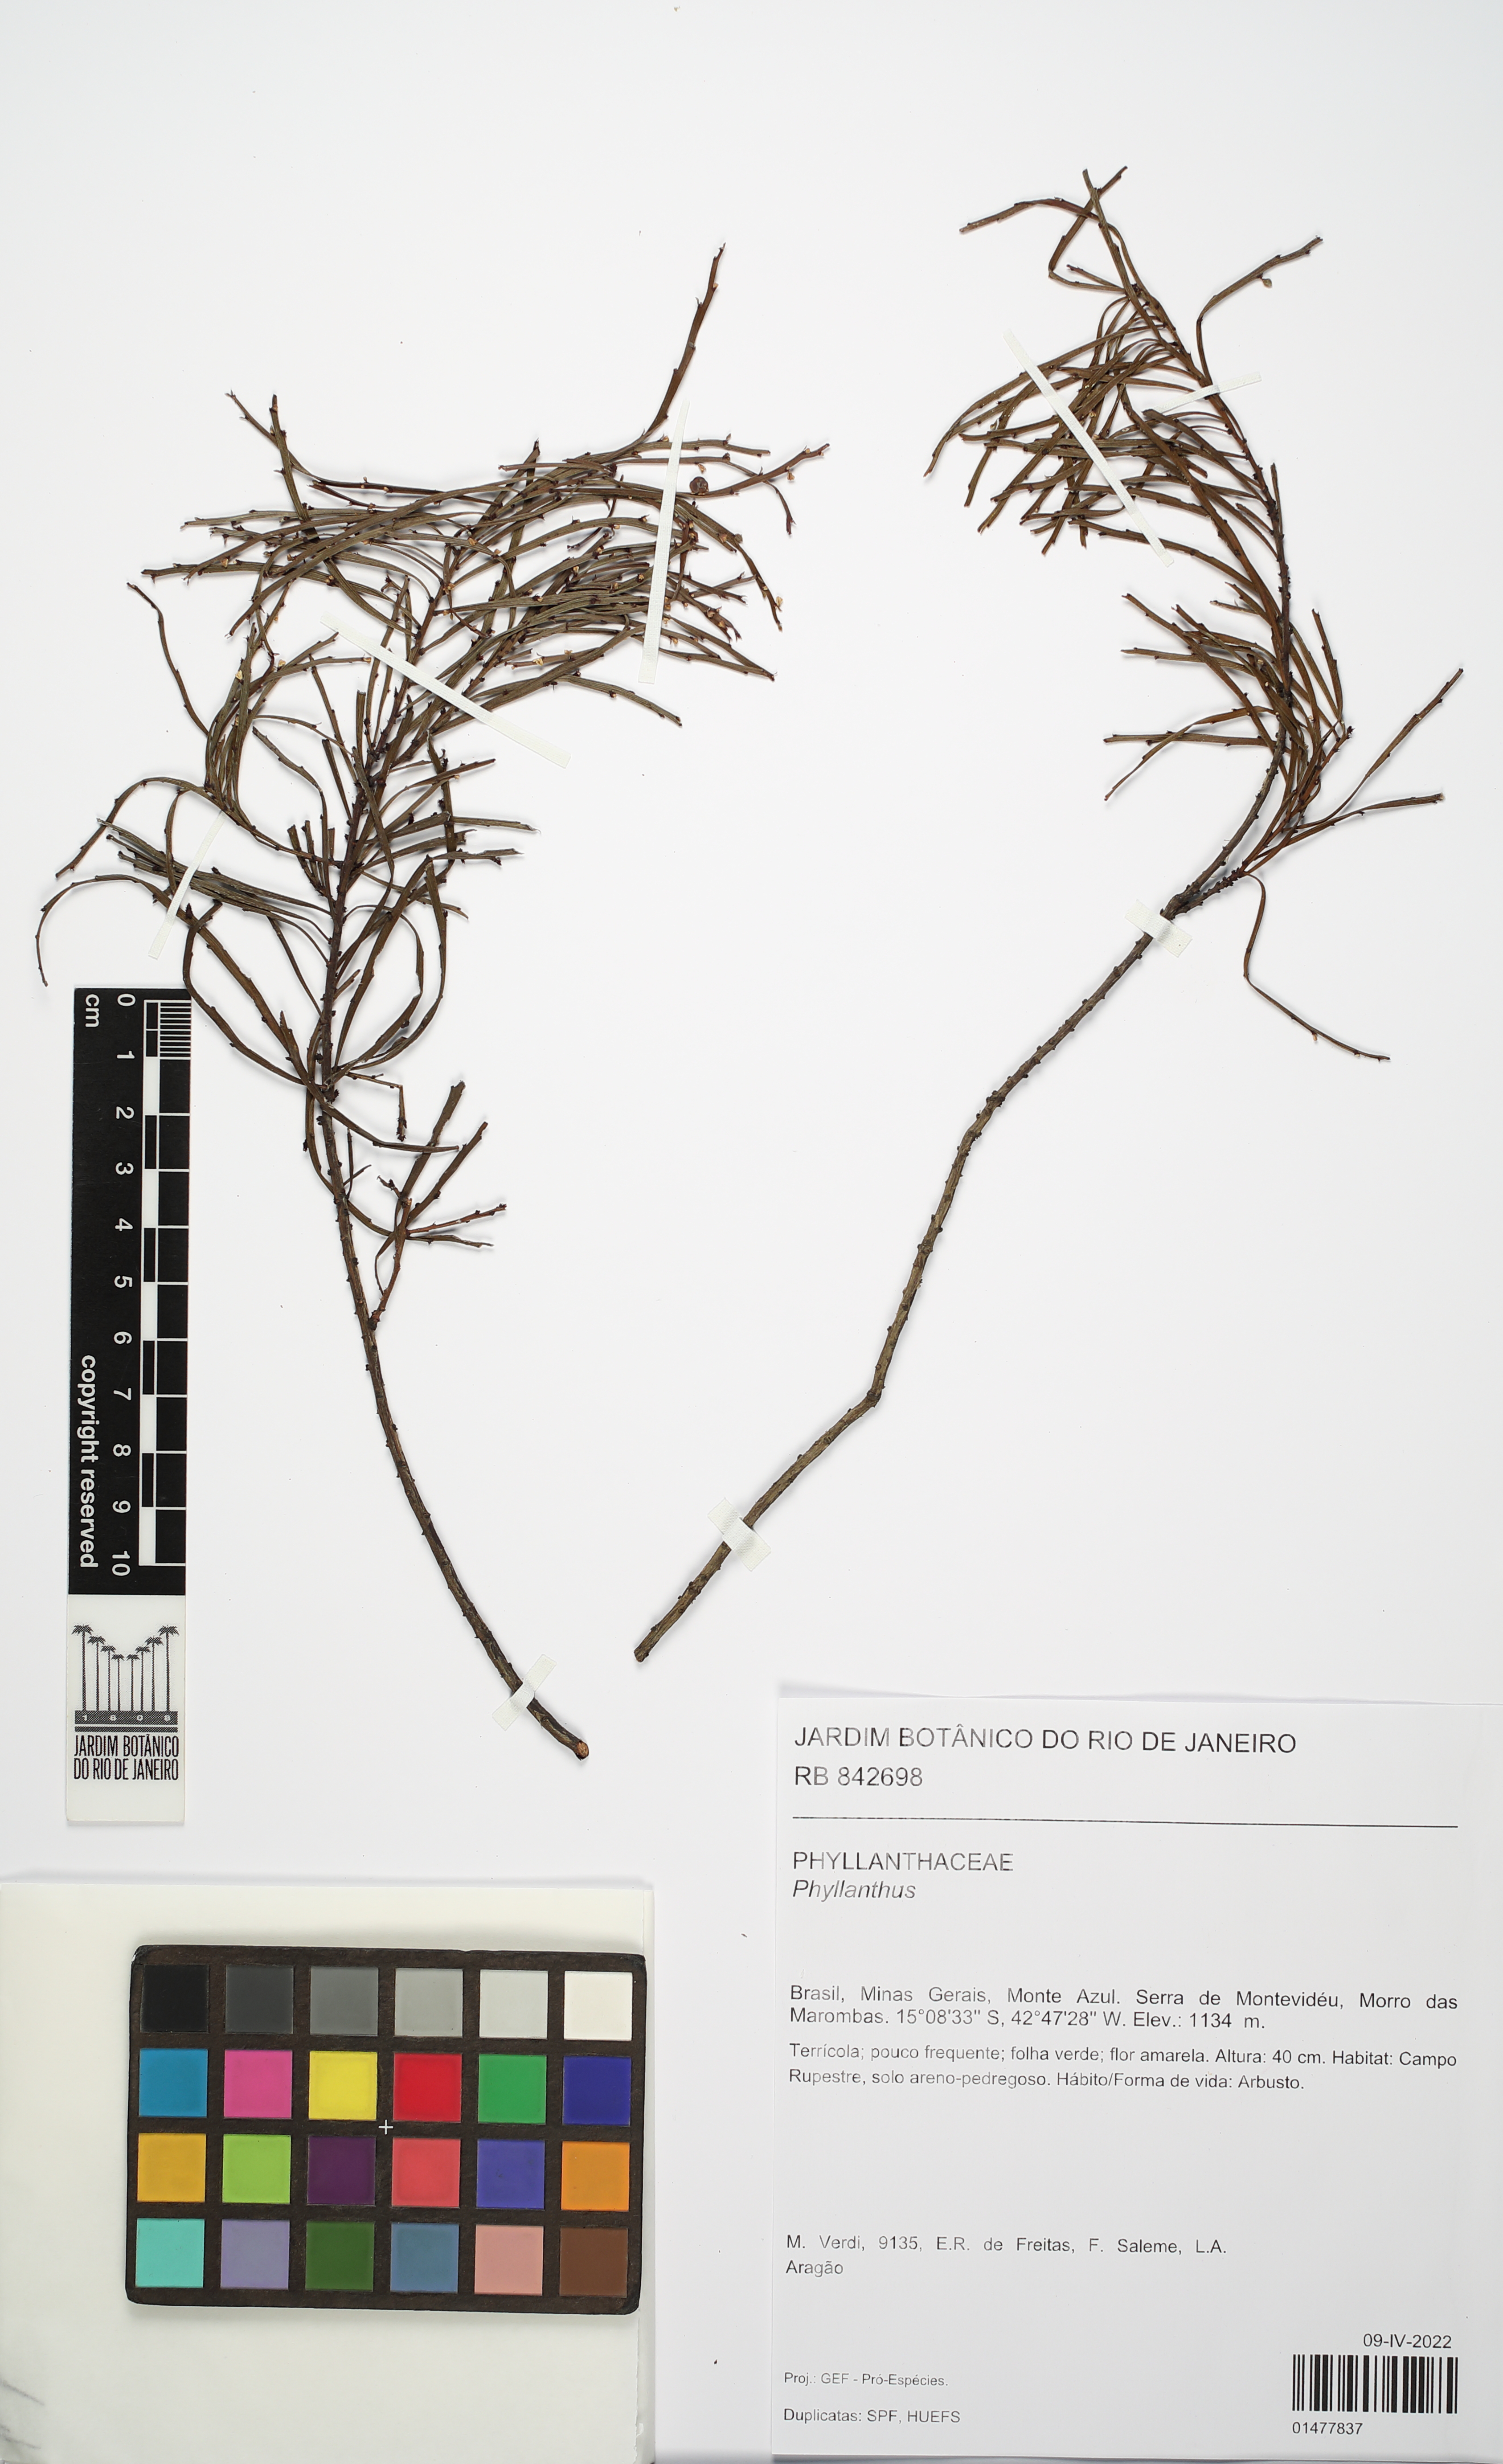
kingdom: Plantae
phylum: Tracheophyta
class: Magnoliopsida
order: Malpighiales
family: Phyllanthaceae
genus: Phyllanthus
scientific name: Phyllanthus
